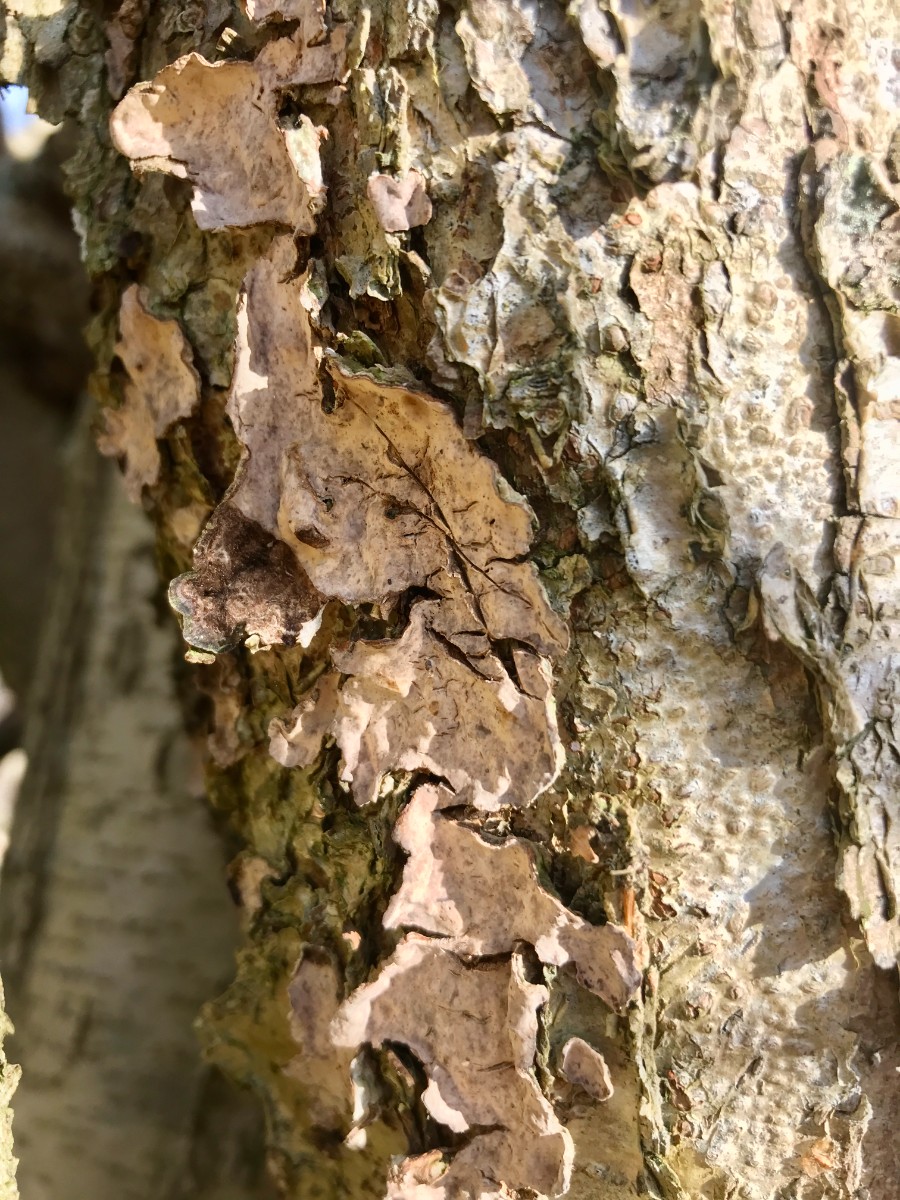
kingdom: Fungi
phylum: Basidiomycota
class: Agaricomycetes
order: Russulales
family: Stereaceae
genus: Stereum
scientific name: Stereum rugosum
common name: rynket lædersvamp
